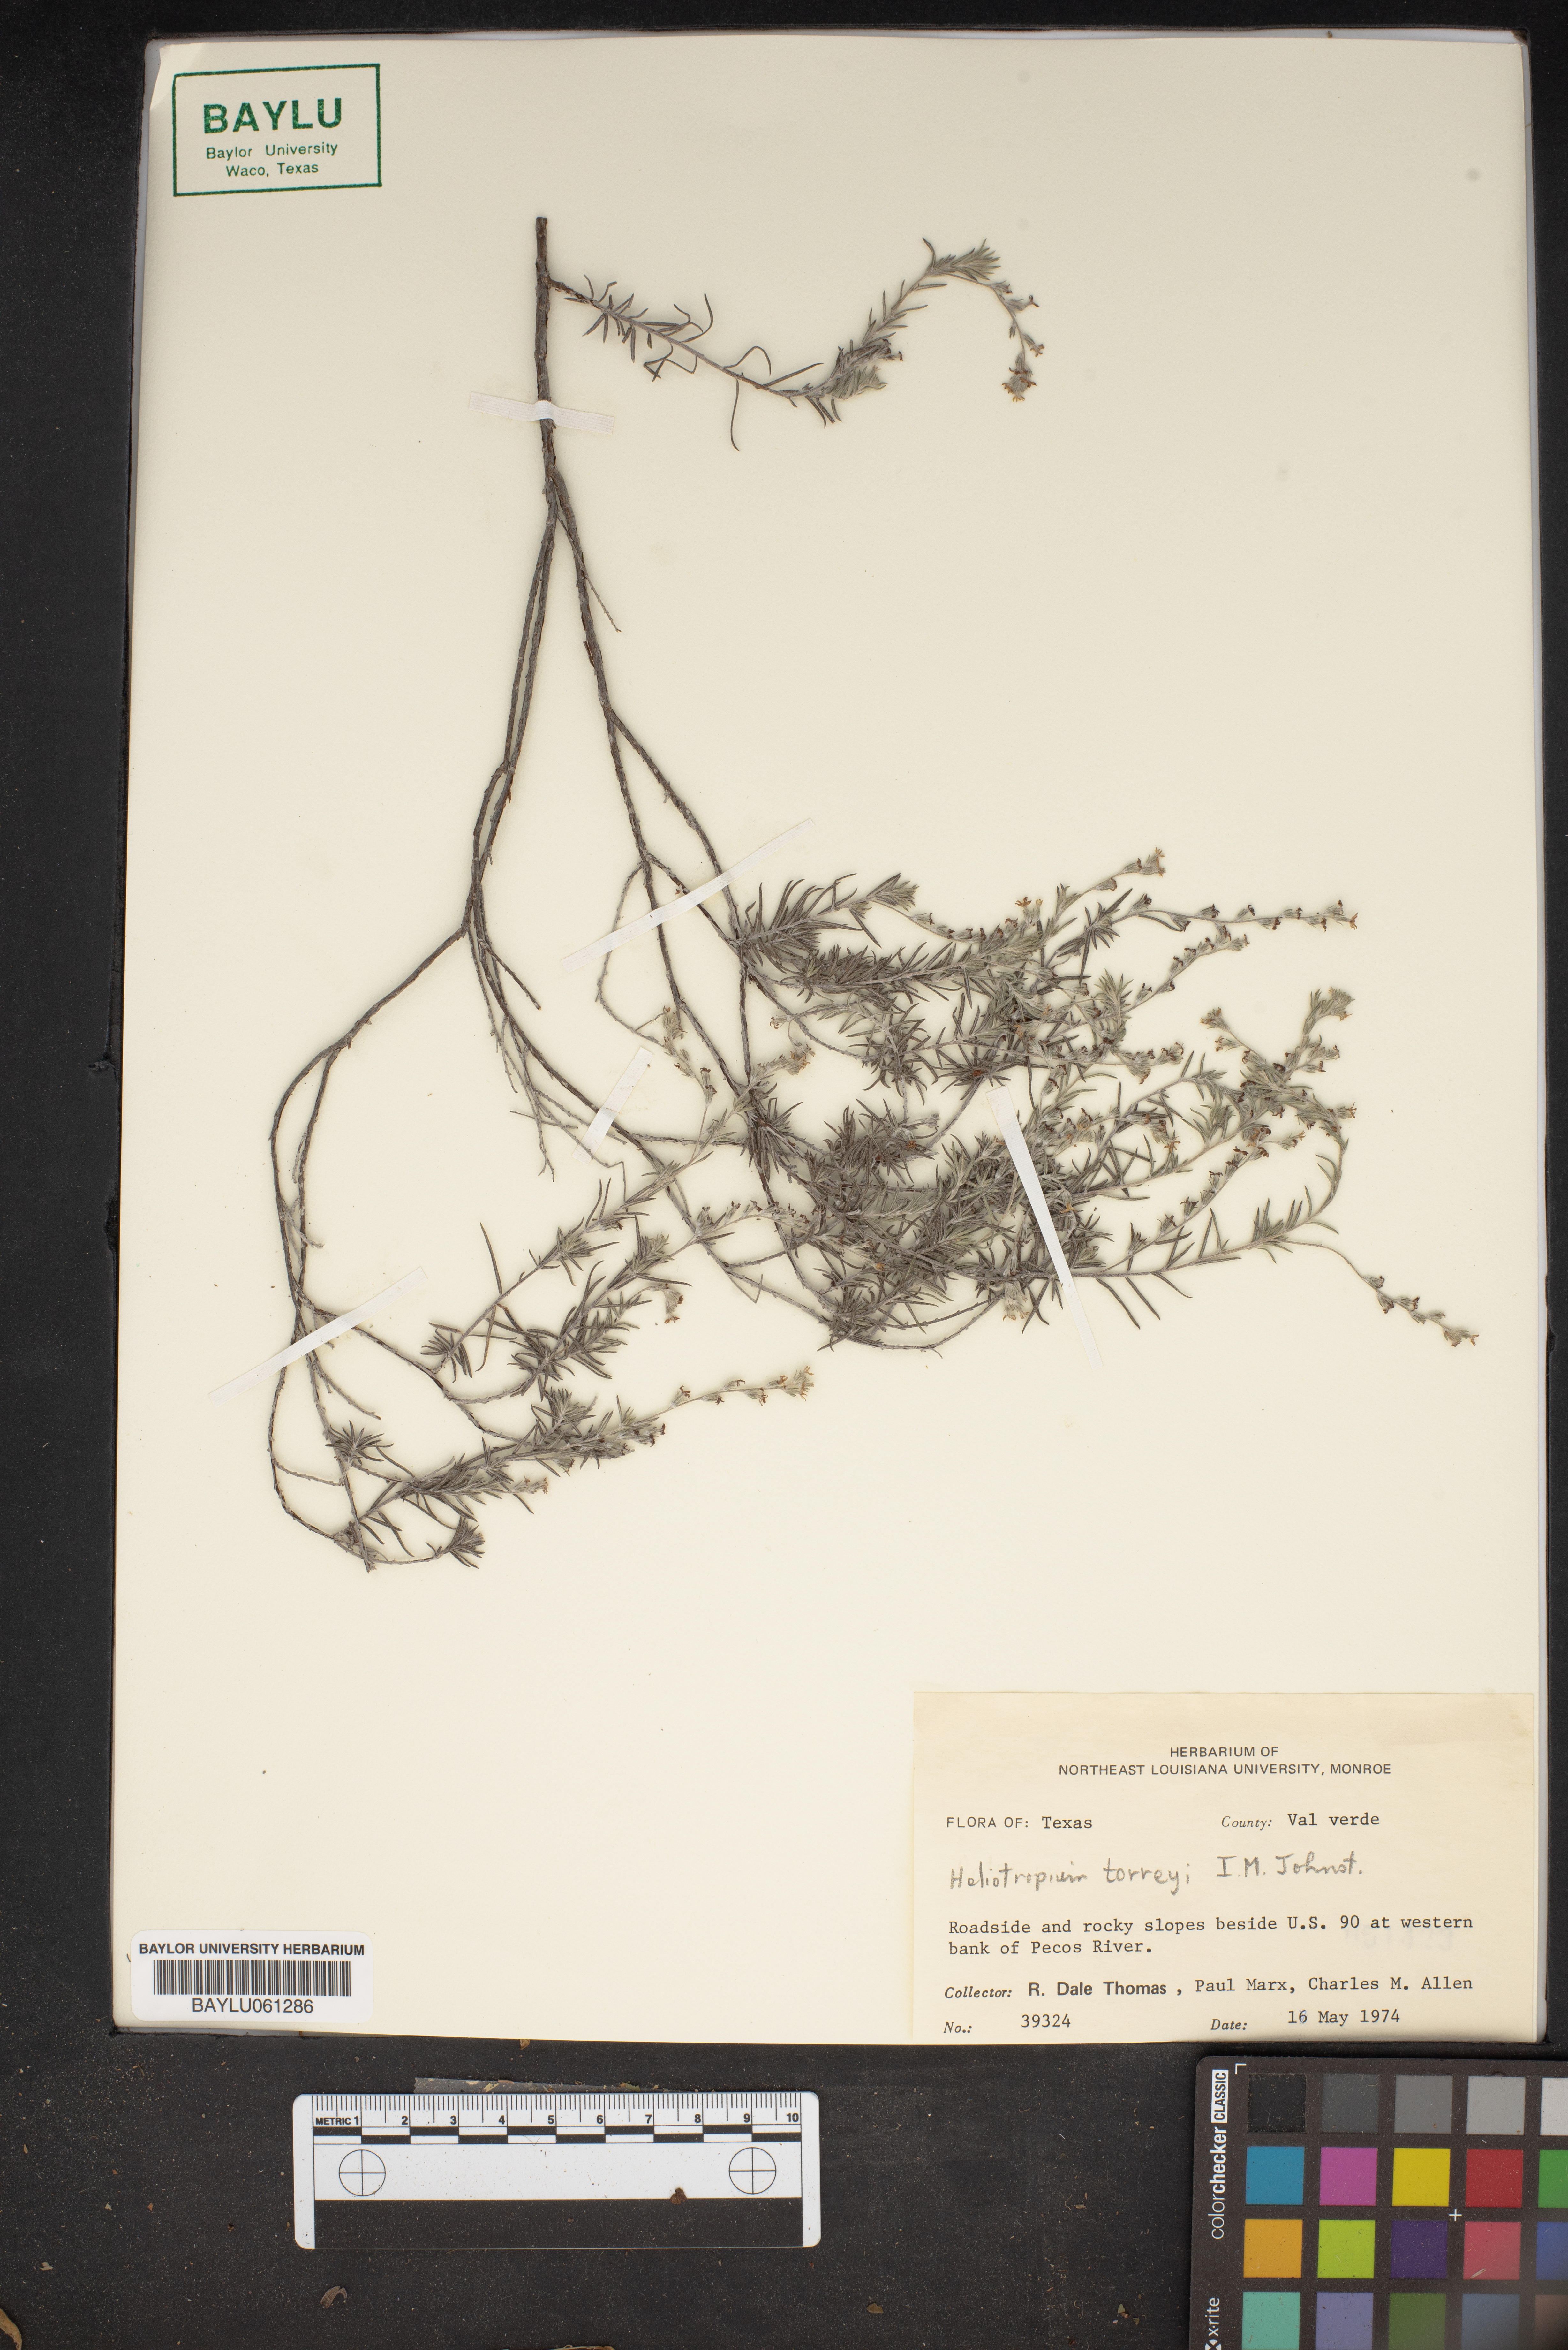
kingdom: Plantae
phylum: Tracheophyta
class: Magnoliopsida
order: Boraginales
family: Heliotropiaceae
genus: Euploca
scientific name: Euploca torreyi
